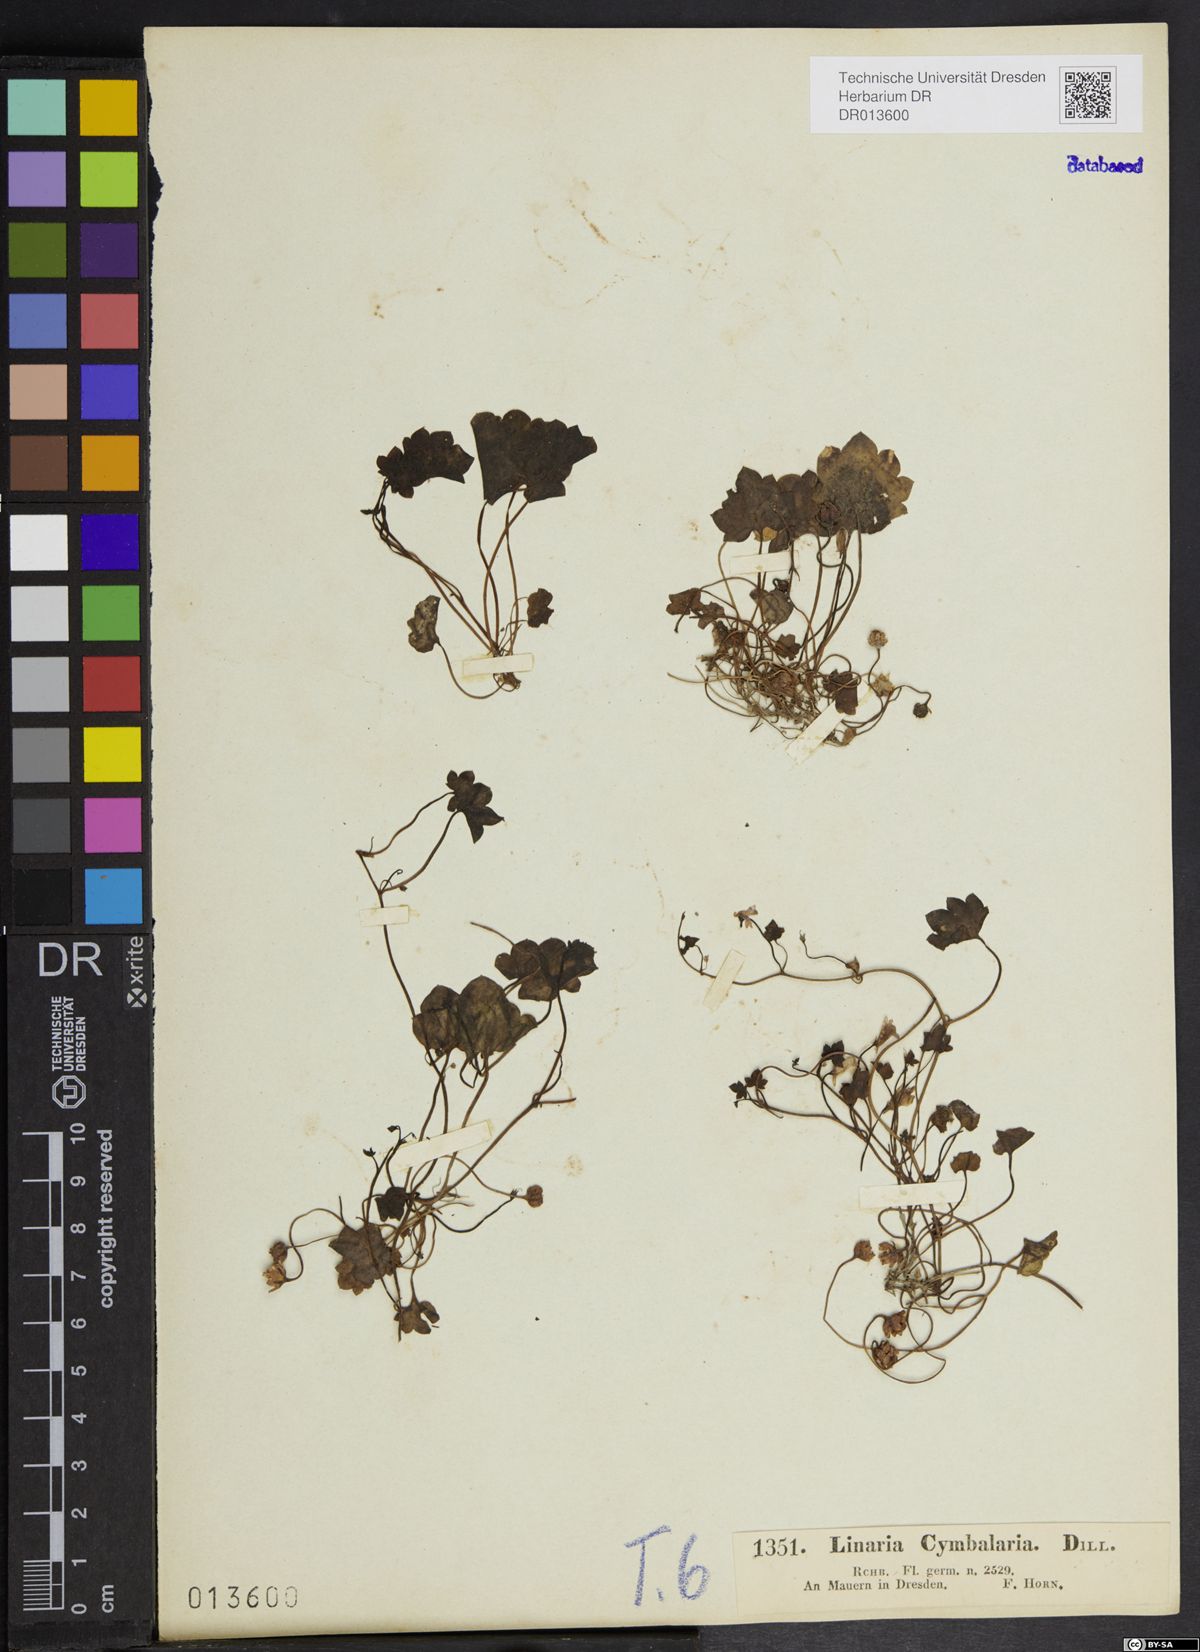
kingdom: Plantae
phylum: Tracheophyta
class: Magnoliopsida
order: Lamiales
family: Plantaginaceae
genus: Cymbalaria
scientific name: Cymbalaria muralis
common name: Ivy-leaved toadflax
